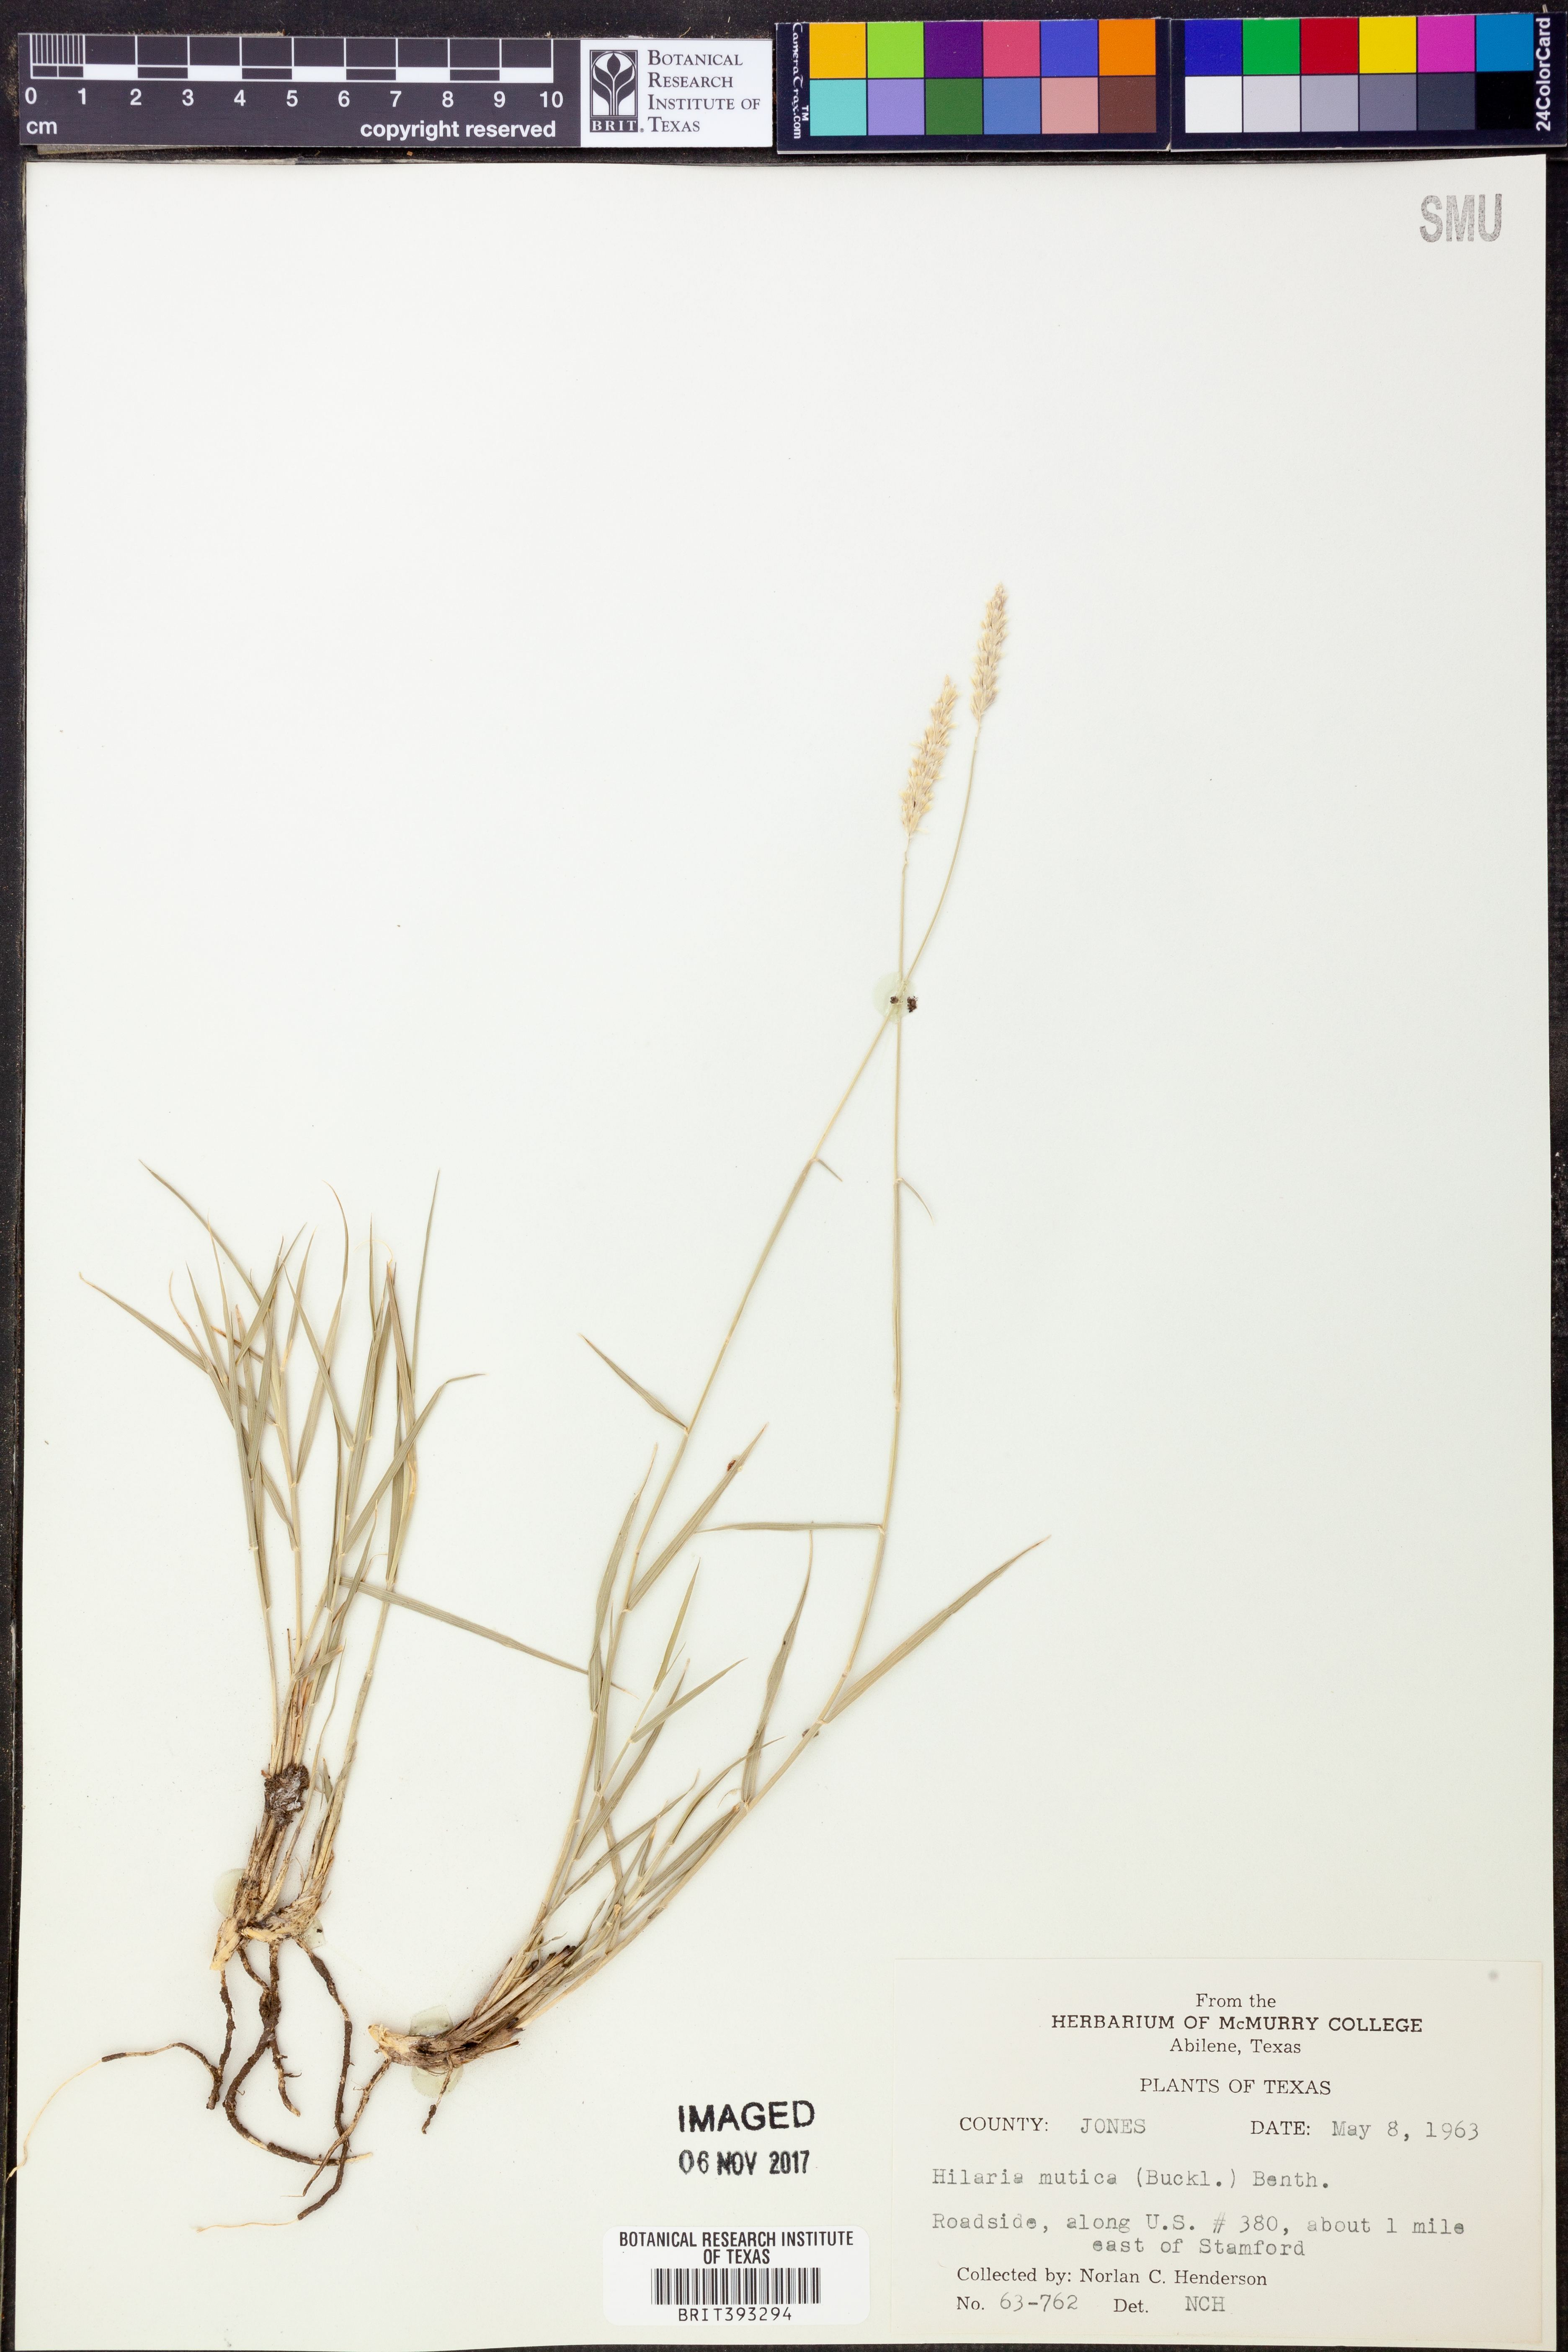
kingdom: Plantae
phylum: Tracheophyta
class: Liliopsida
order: Poales
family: Poaceae
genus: Hilaria
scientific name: Hilaria mutica
